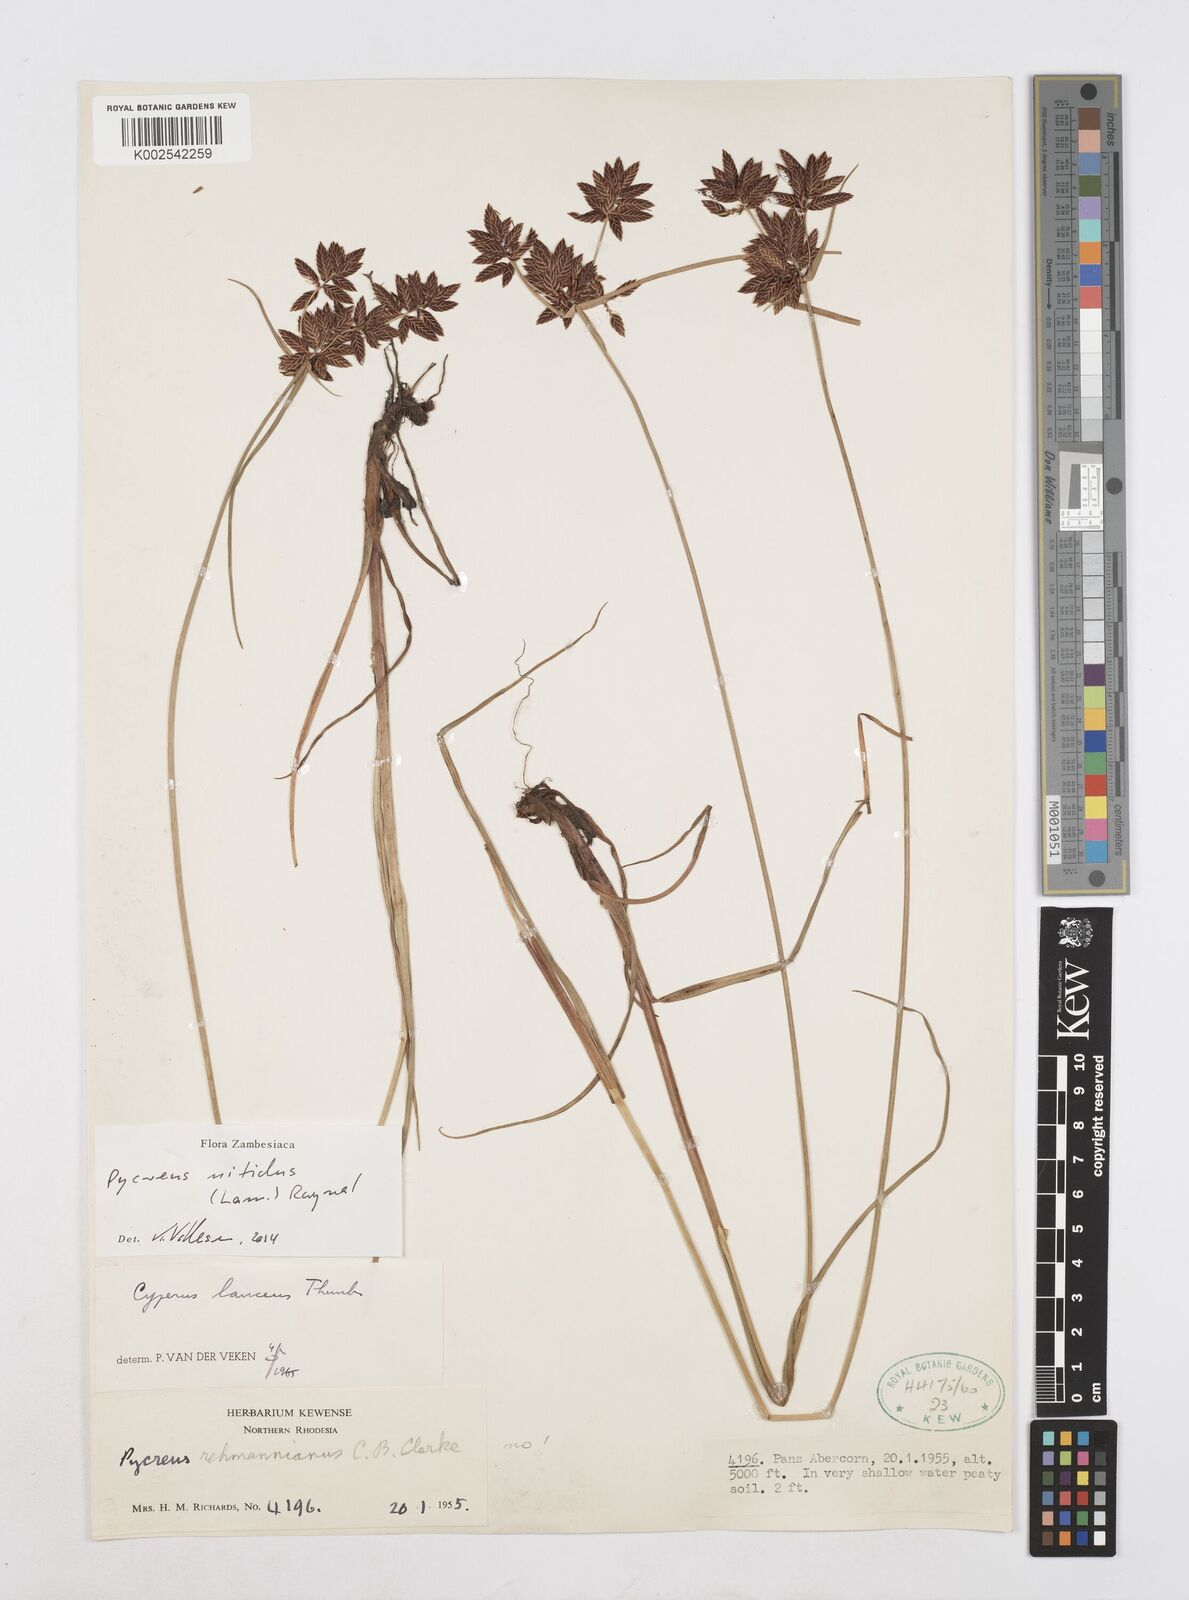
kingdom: Plantae
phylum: Tracheophyta
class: Liliopsida
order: Poales
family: Cyperaceae
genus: Cyperus
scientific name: Cyperus nitidus
